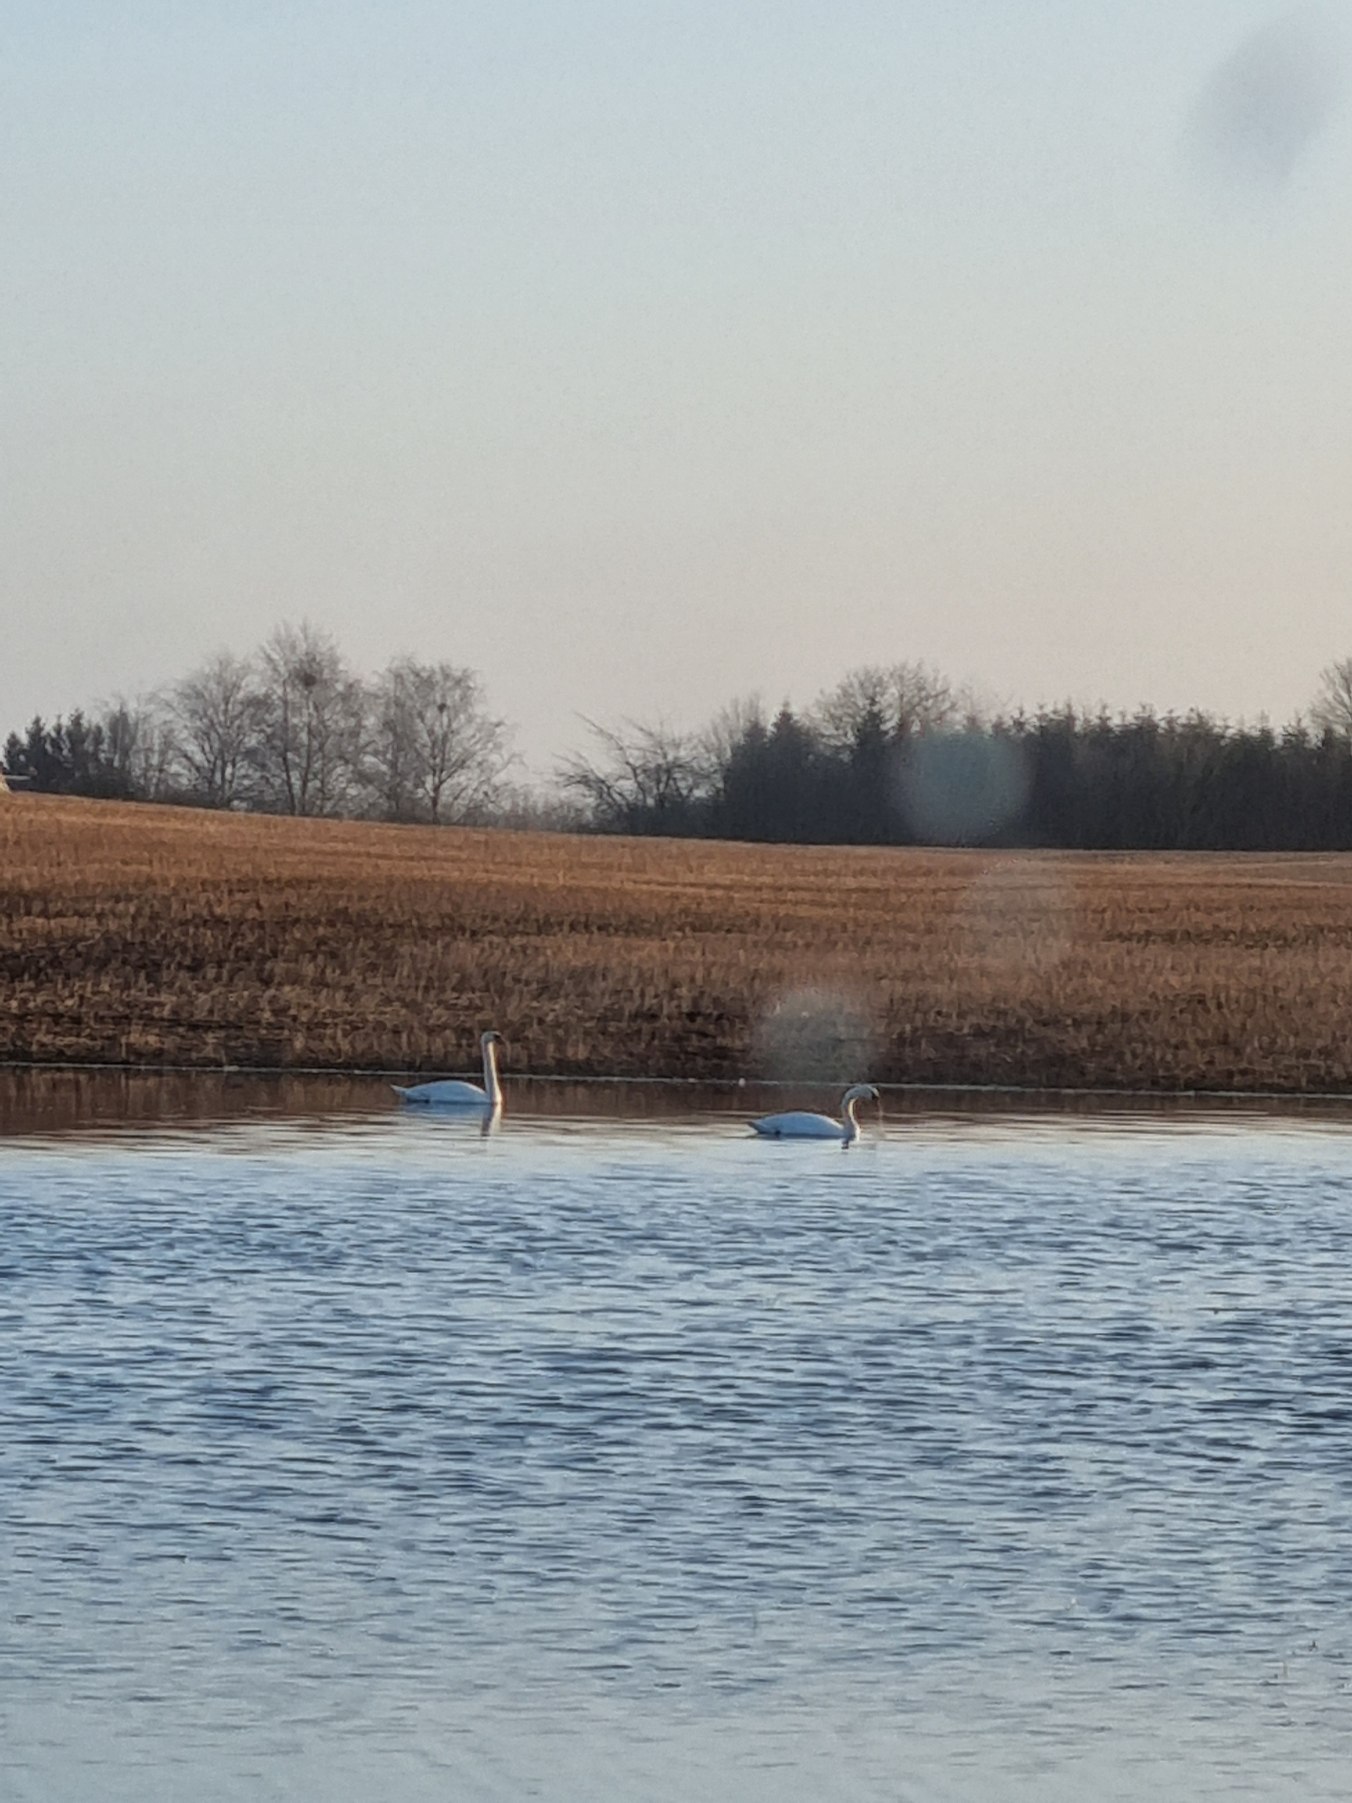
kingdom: Animalia
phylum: Chordata
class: Aves
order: Anseriformes
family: Anatidae
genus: Cygnus
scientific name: Cygnus olor
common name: Knopsvane
